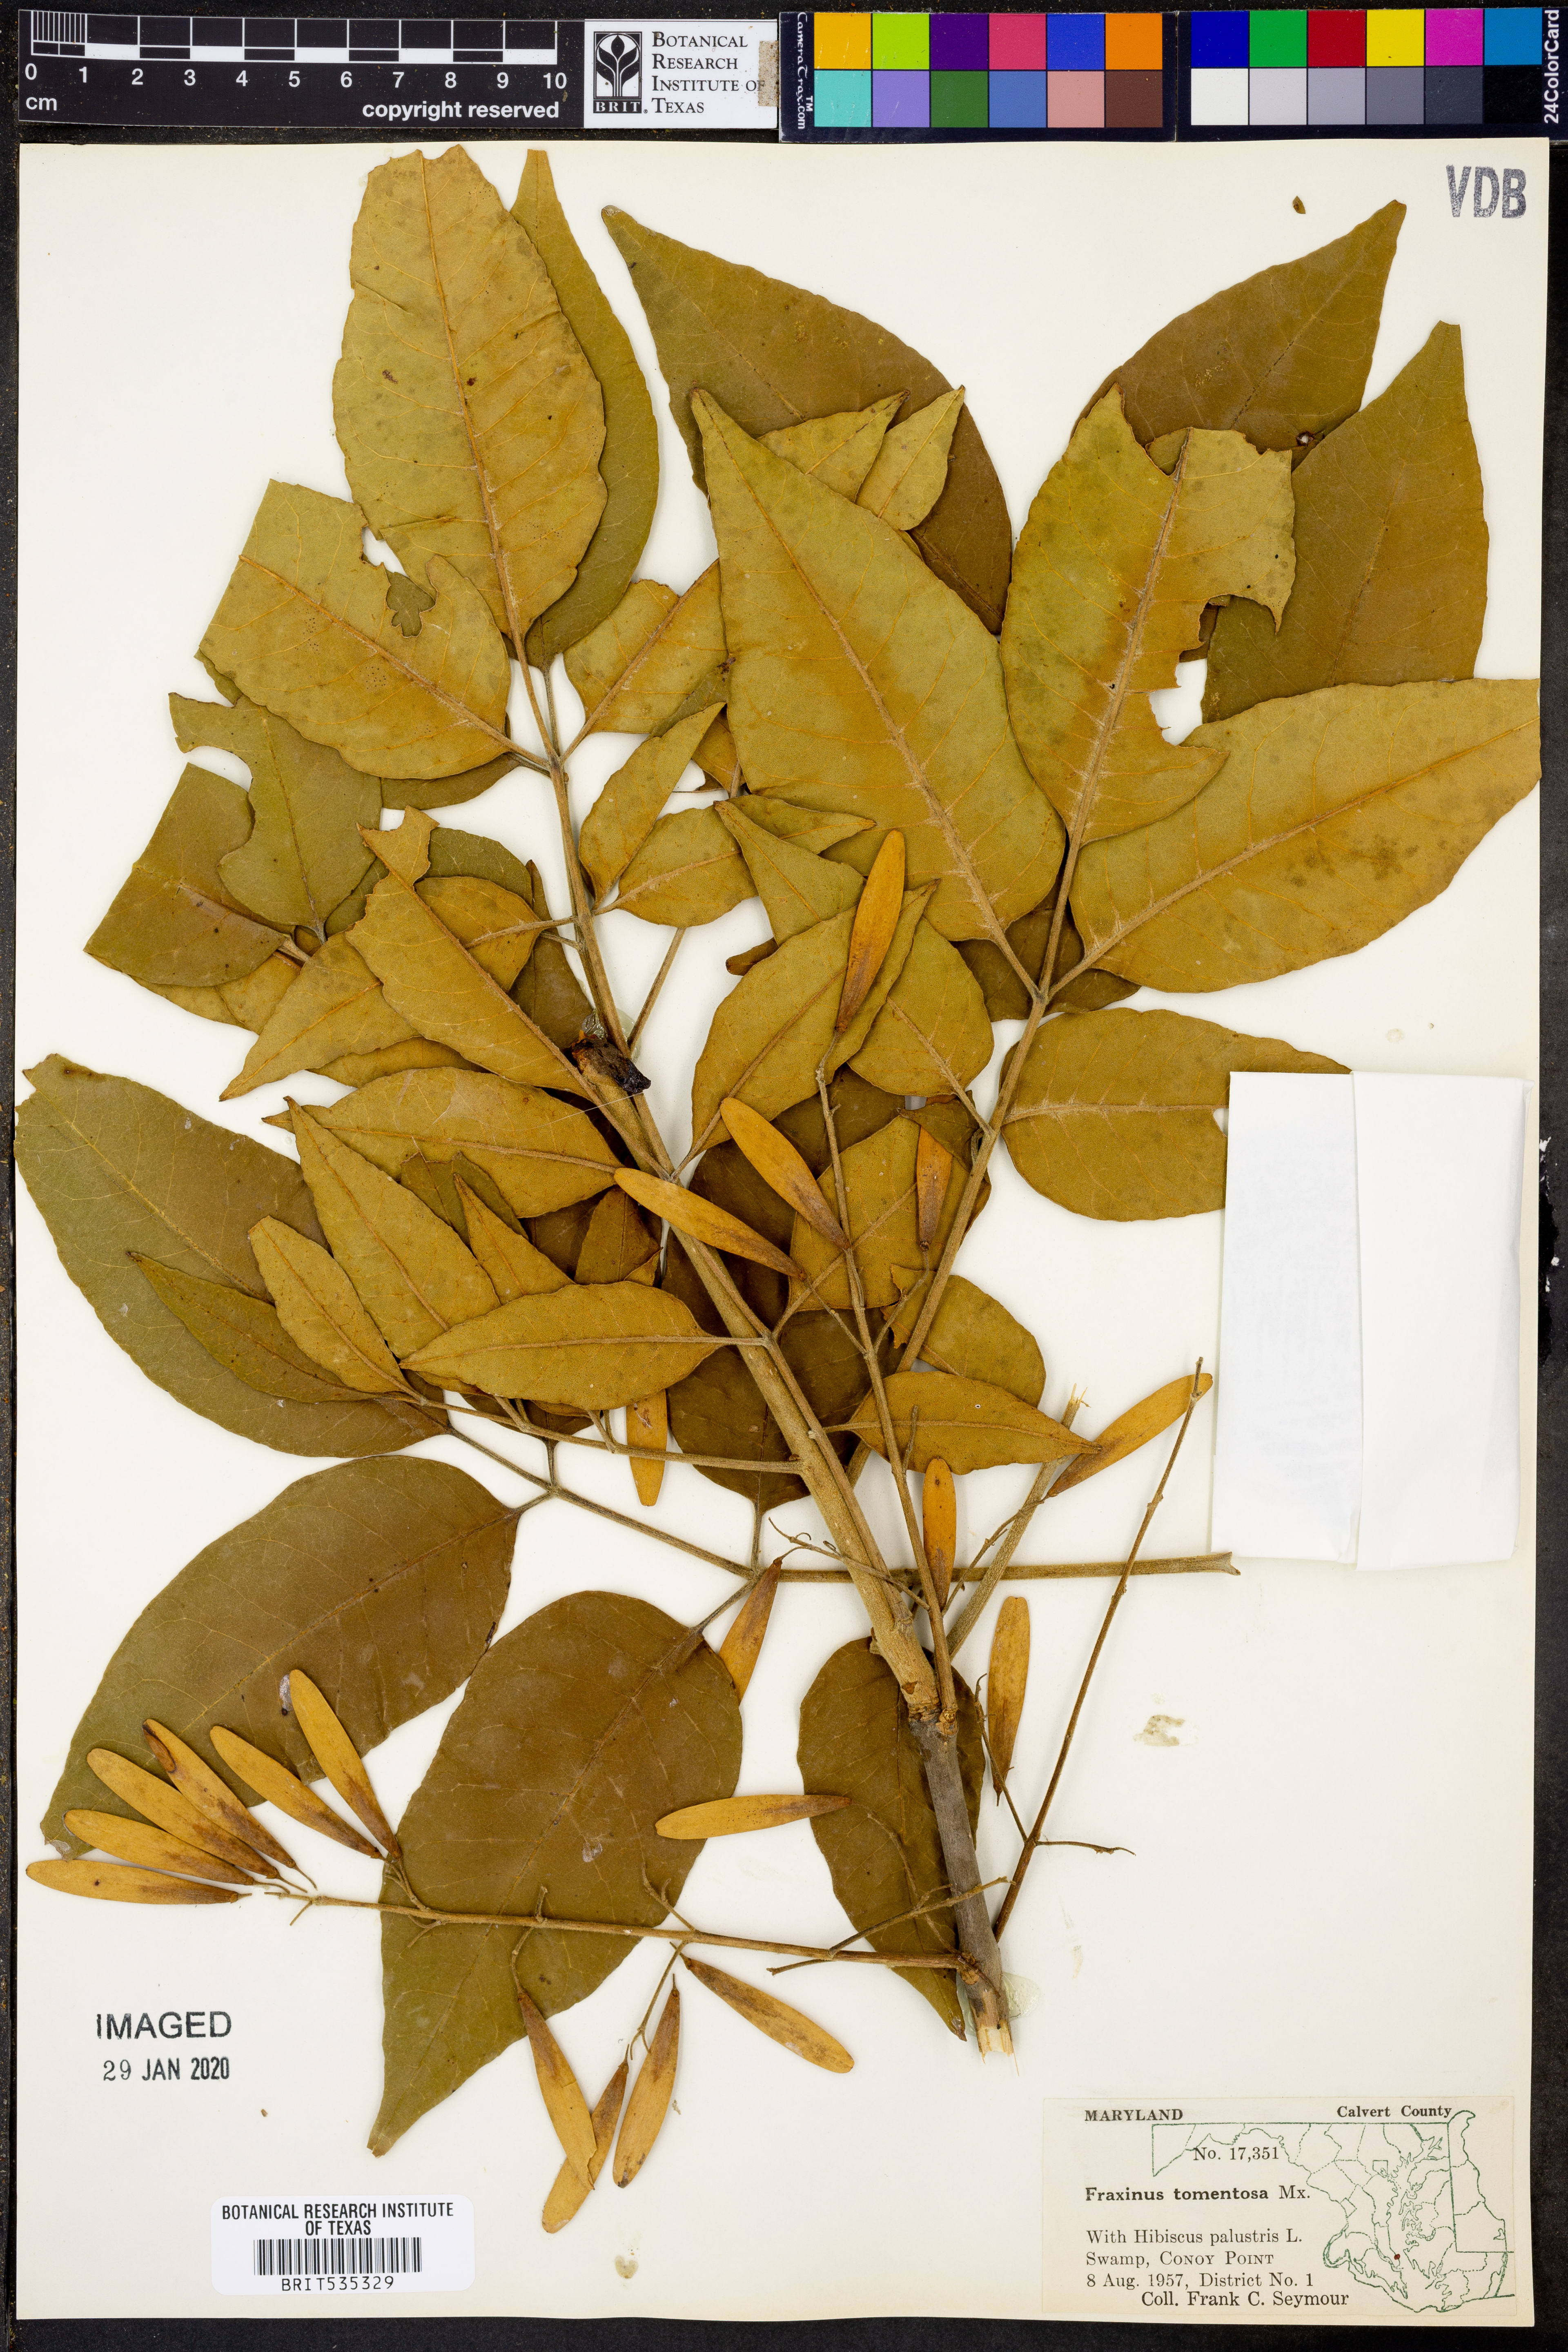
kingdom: Plantae
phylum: Tracheophyta
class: Magnoliopsida
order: Lamiales
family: Oleaceae
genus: Fraxinus
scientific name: Fraxinus profunda
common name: Pumpkin ash
